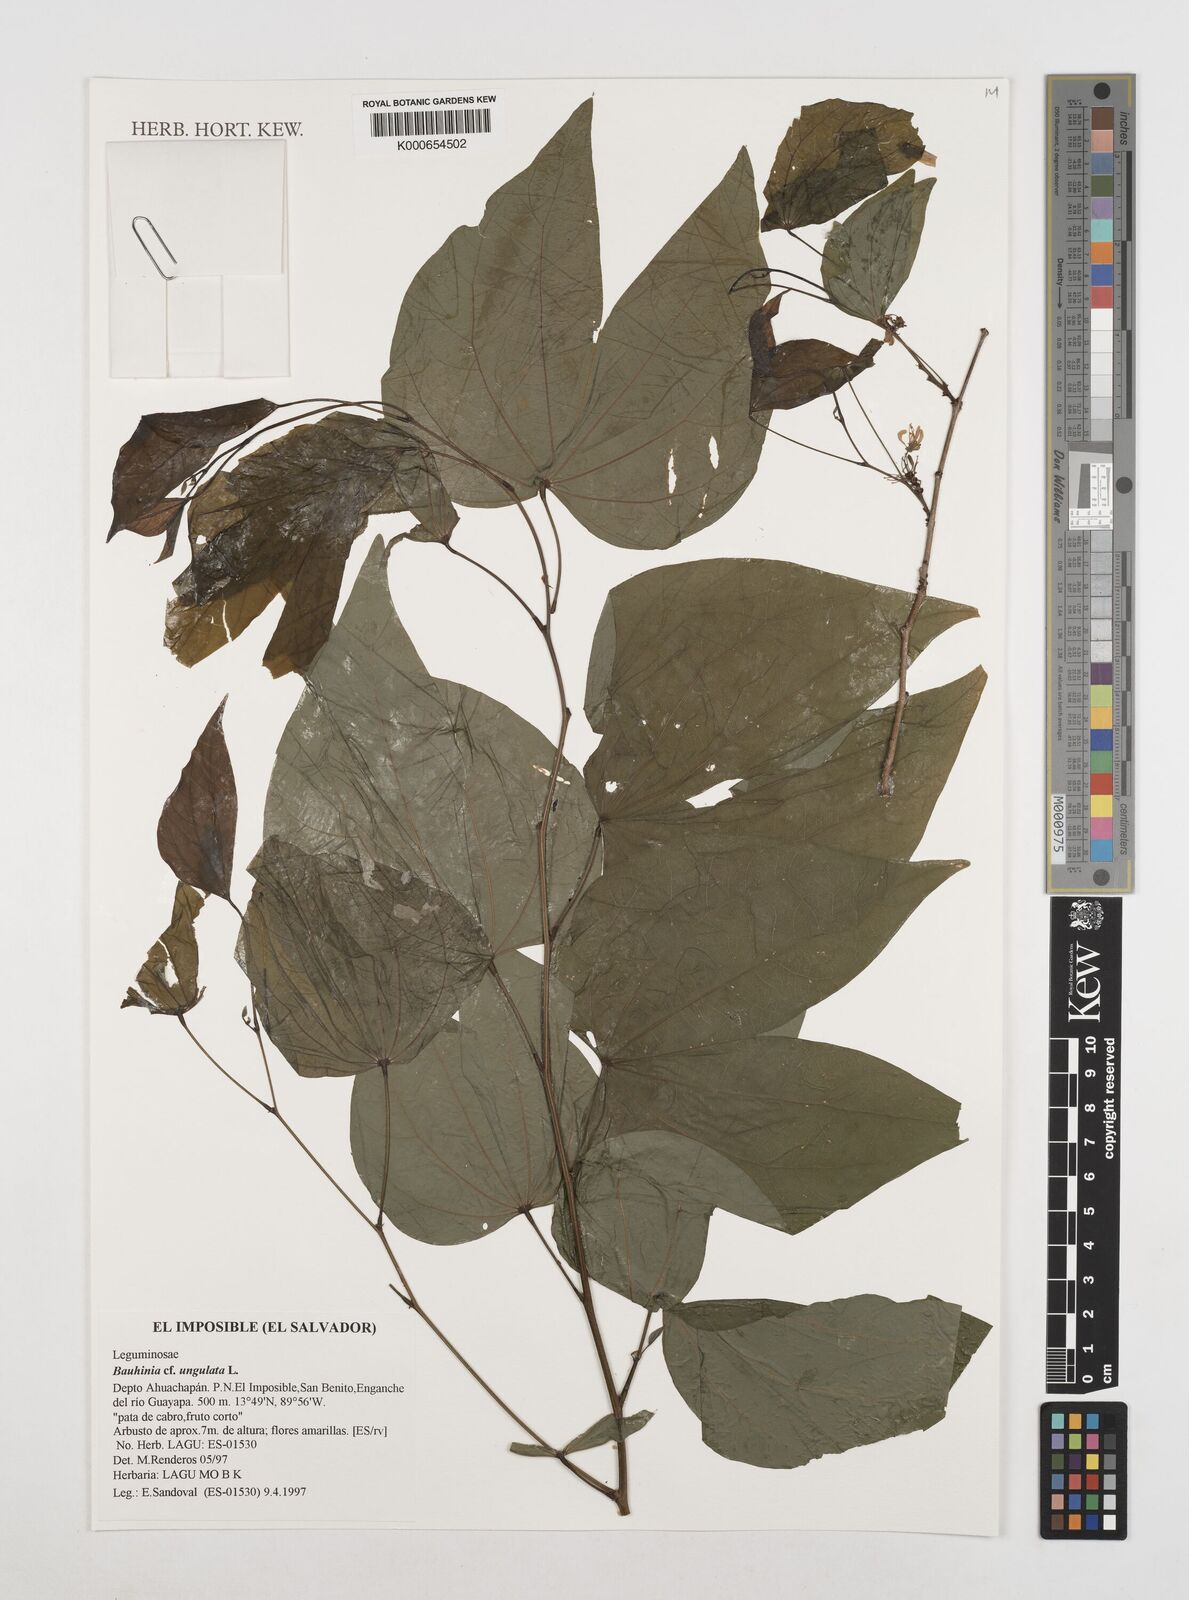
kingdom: Plantae
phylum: Tracheophyta
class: Magnoliopsida
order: Fabales
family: Fabaceae
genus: Bauhinia
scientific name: Bauhinia ungulata
